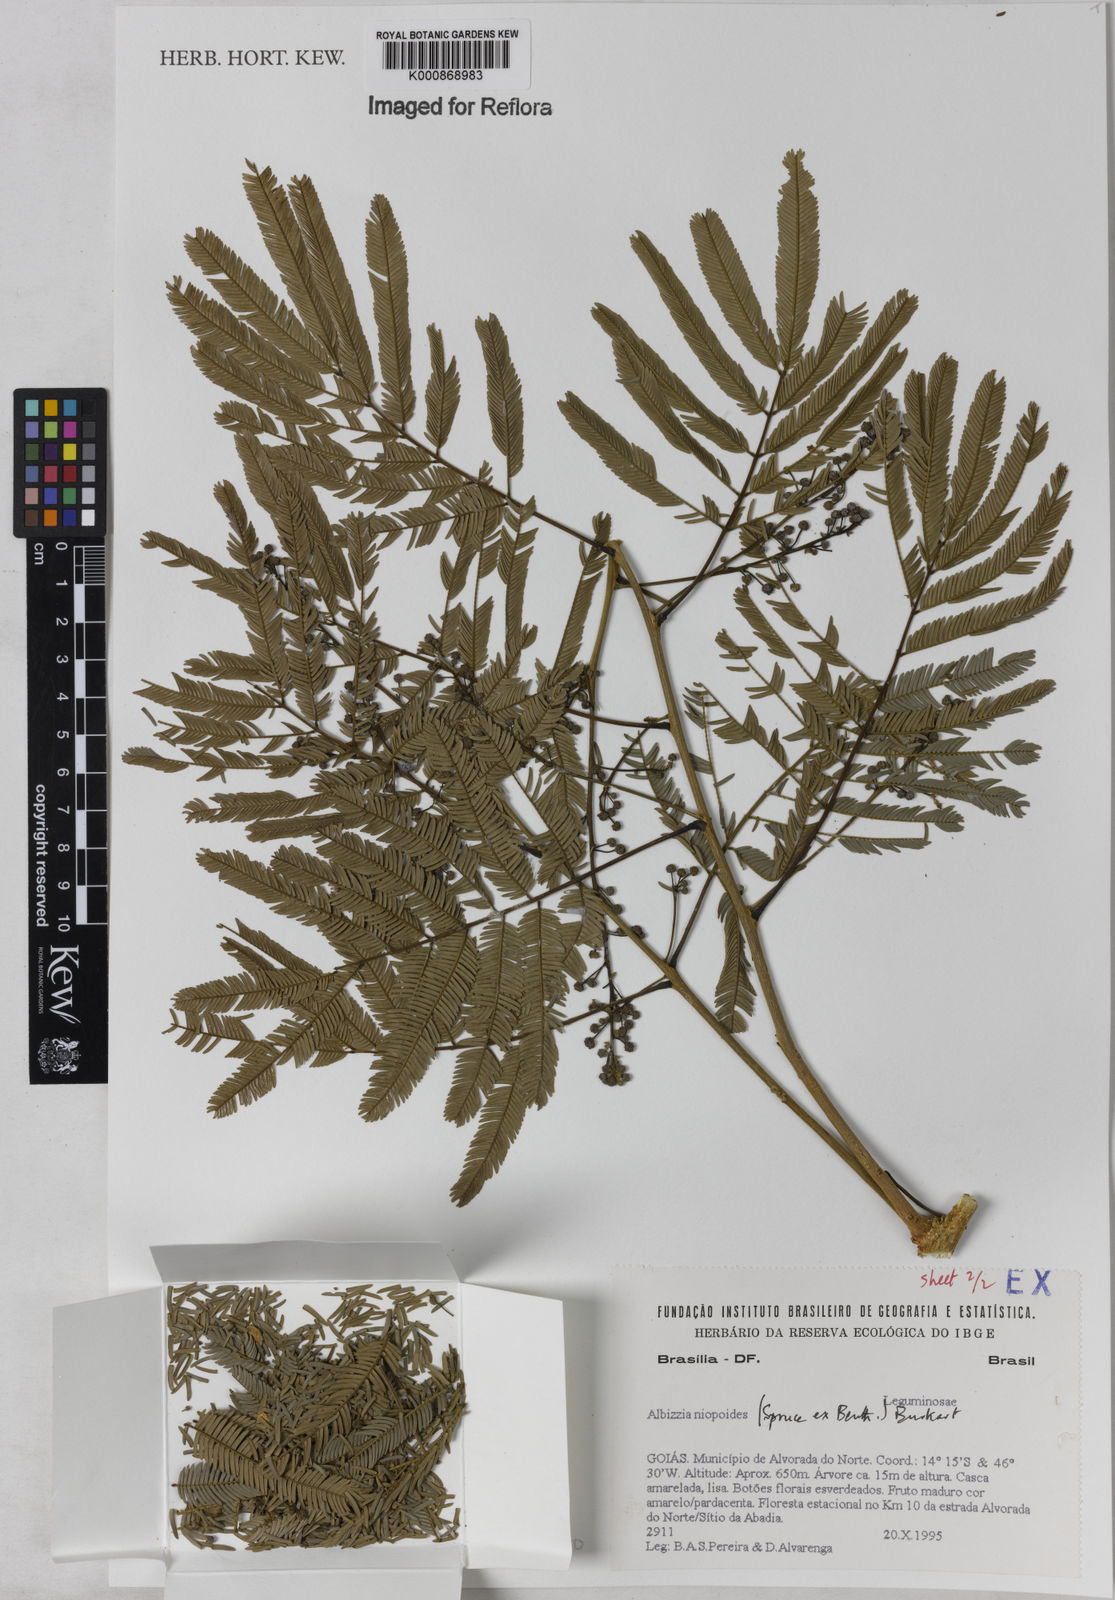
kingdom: Plantae
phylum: Tracheophyta
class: Magnoliopsida
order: Fabales
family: Fabaceae
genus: Albizia
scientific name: Albizia niopoides
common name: Silk tree
